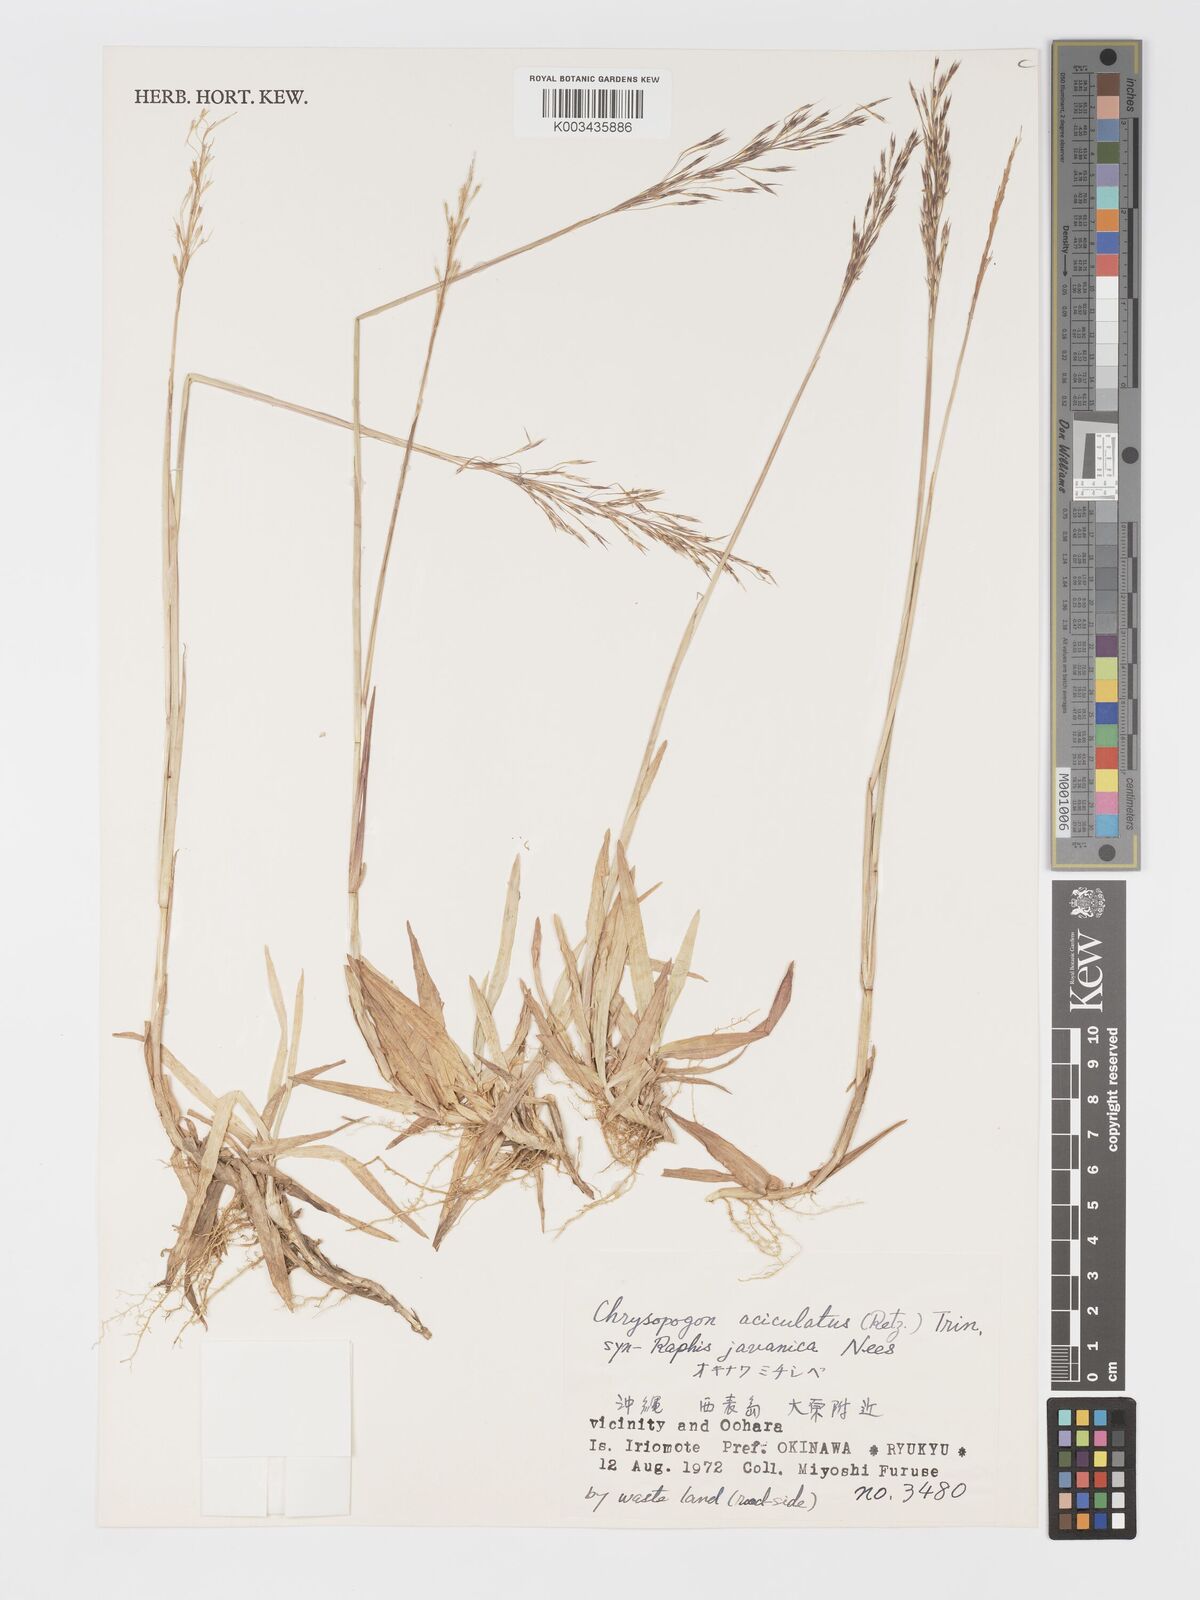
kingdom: Plantae
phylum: Tracheophyta
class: Liliopsida
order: Poales
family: Poaceae
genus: Chrysopogon
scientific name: Chrysopogon aciculatus
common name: Pilipiliula
